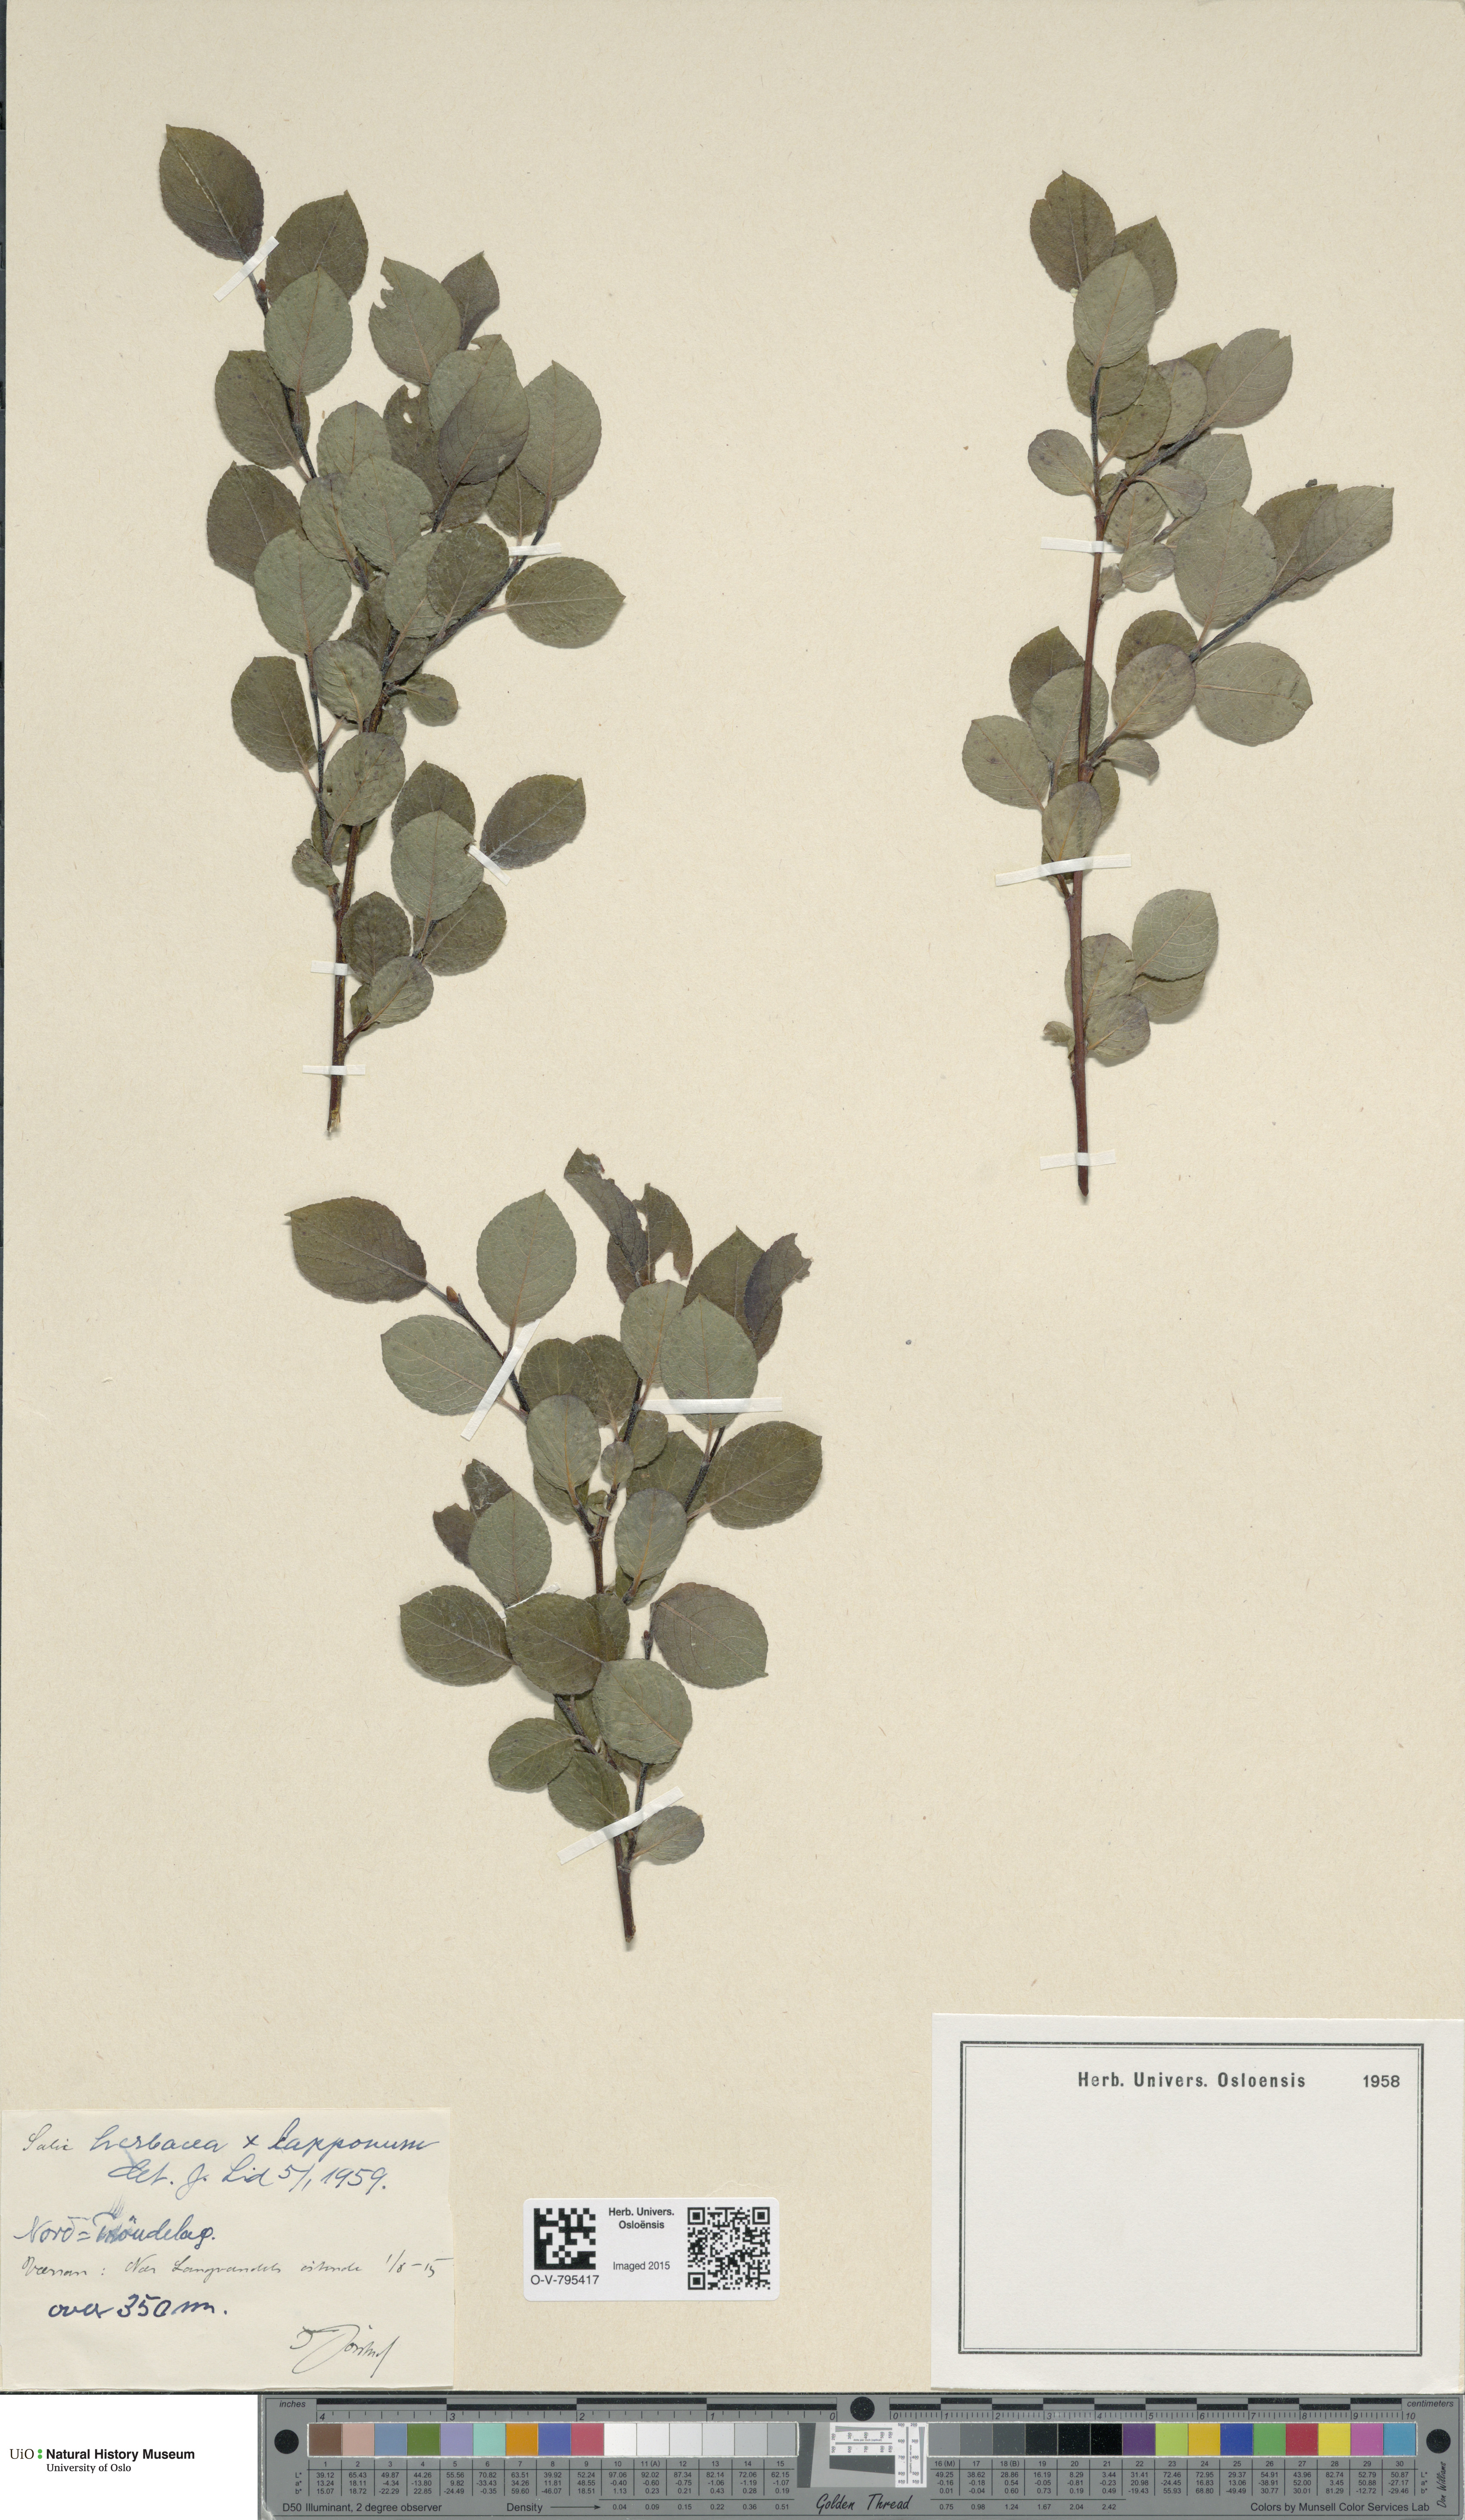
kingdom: Plantae
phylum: Tracheophyta
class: Magnoliopsida
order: Malpighiales
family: Salicaceae
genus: Salix
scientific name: Salix
